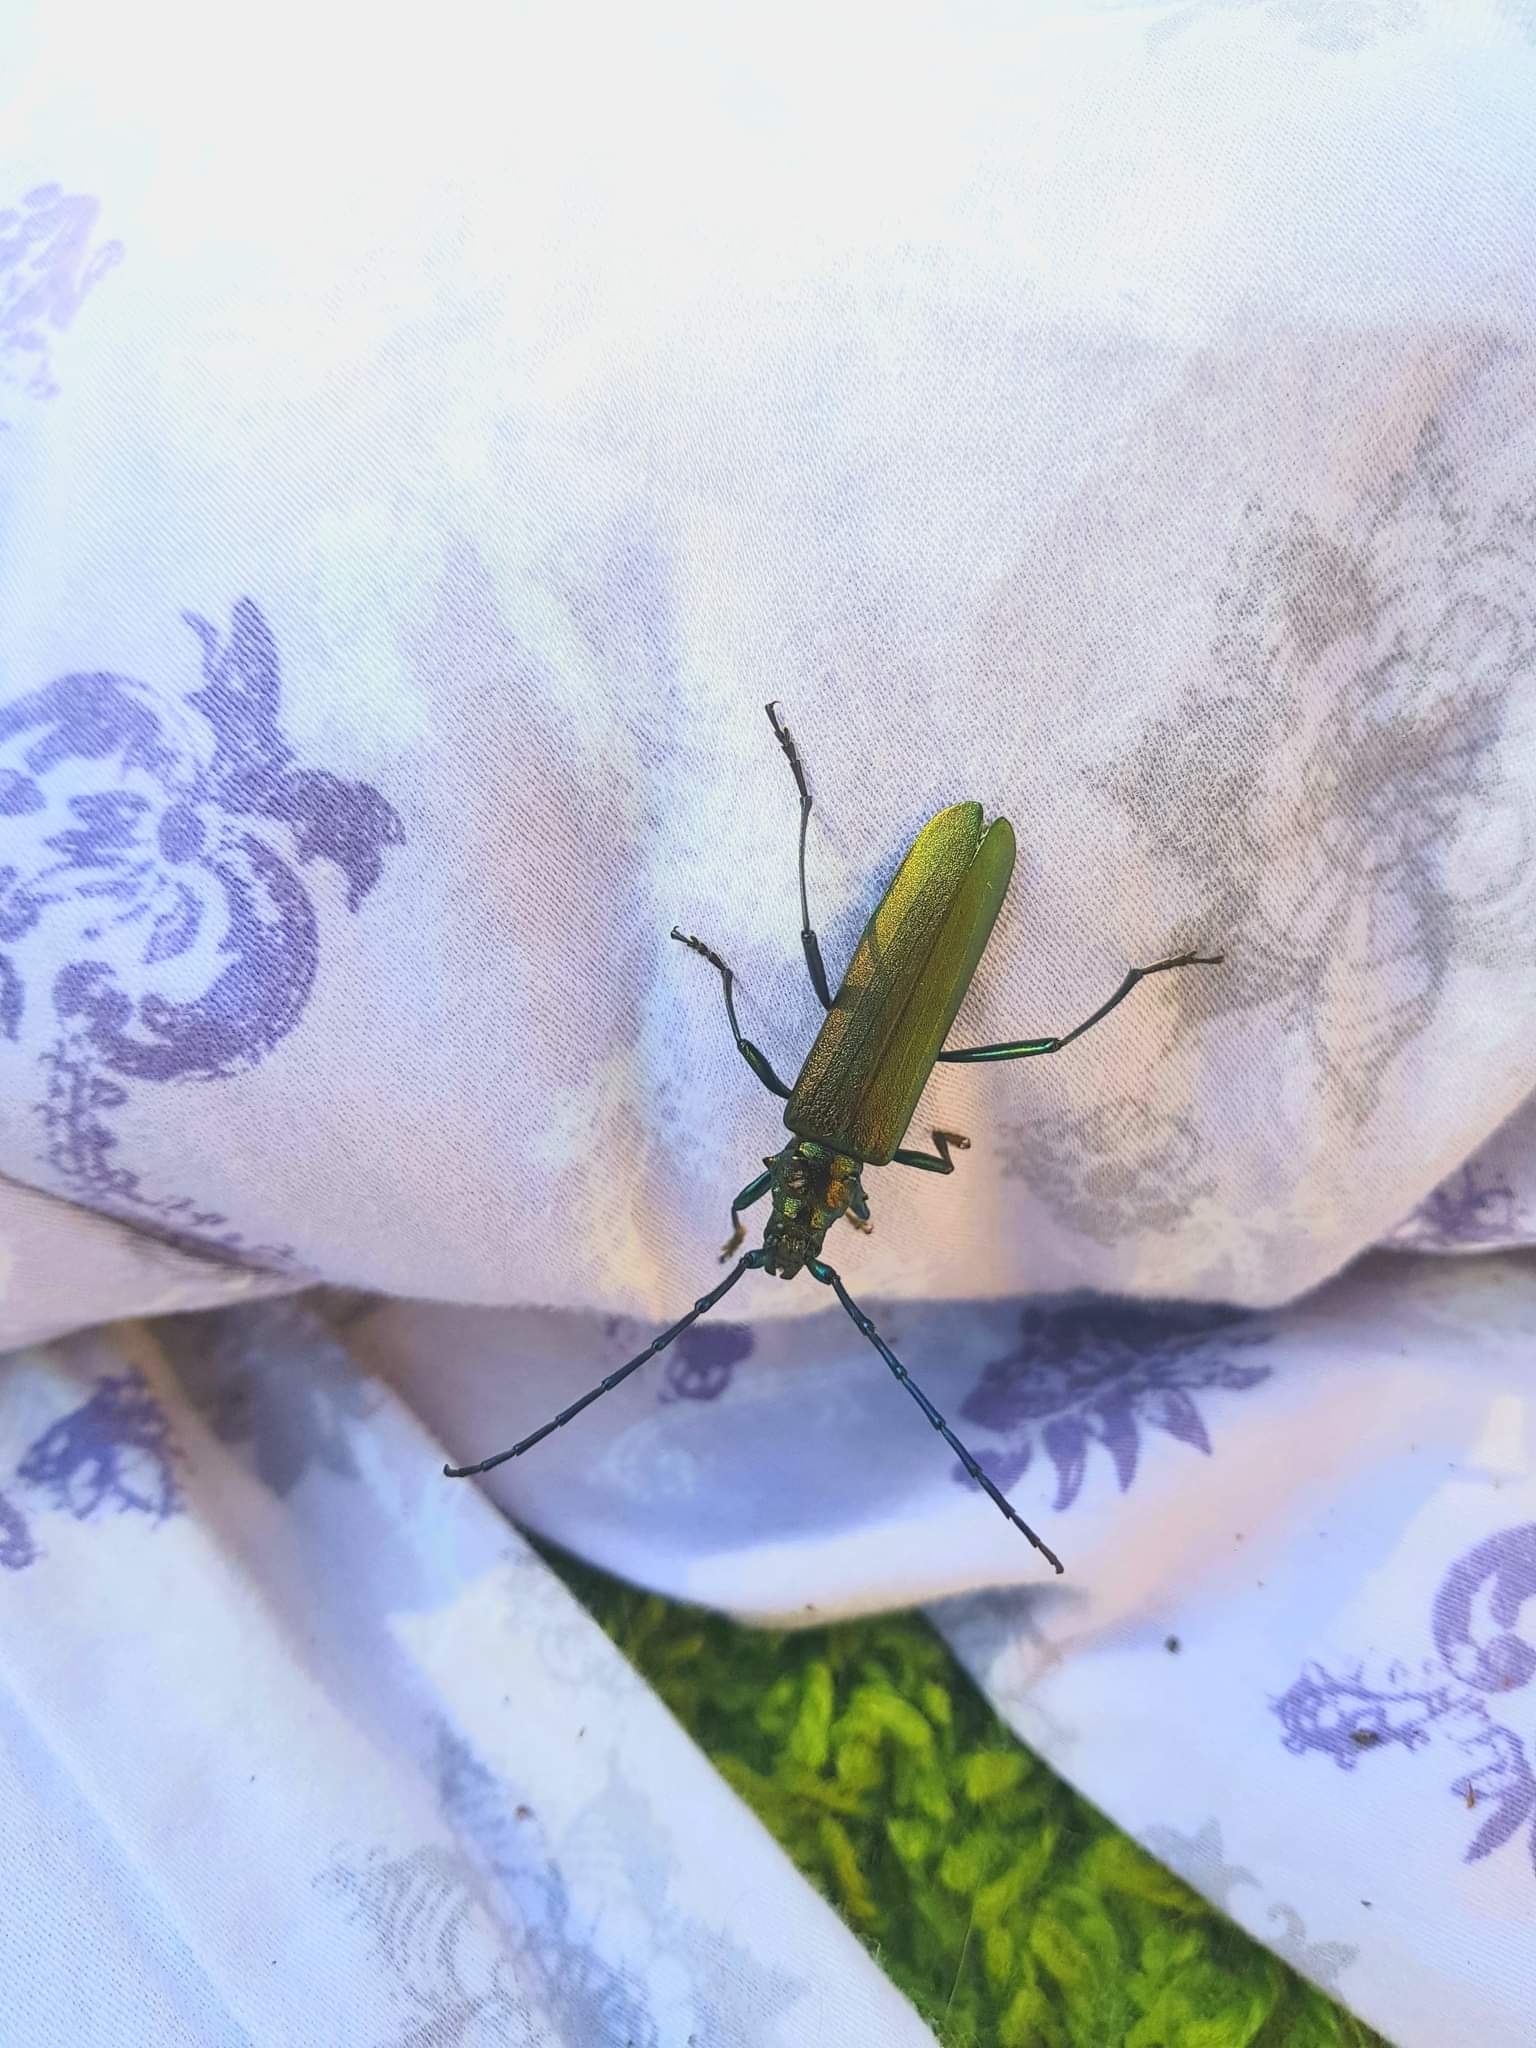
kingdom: Animalia
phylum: Arthropoda
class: Insecta
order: Coleoptera
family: Cerambycidae
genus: Aromia
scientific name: Aromia moschata
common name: Moskusbuk
